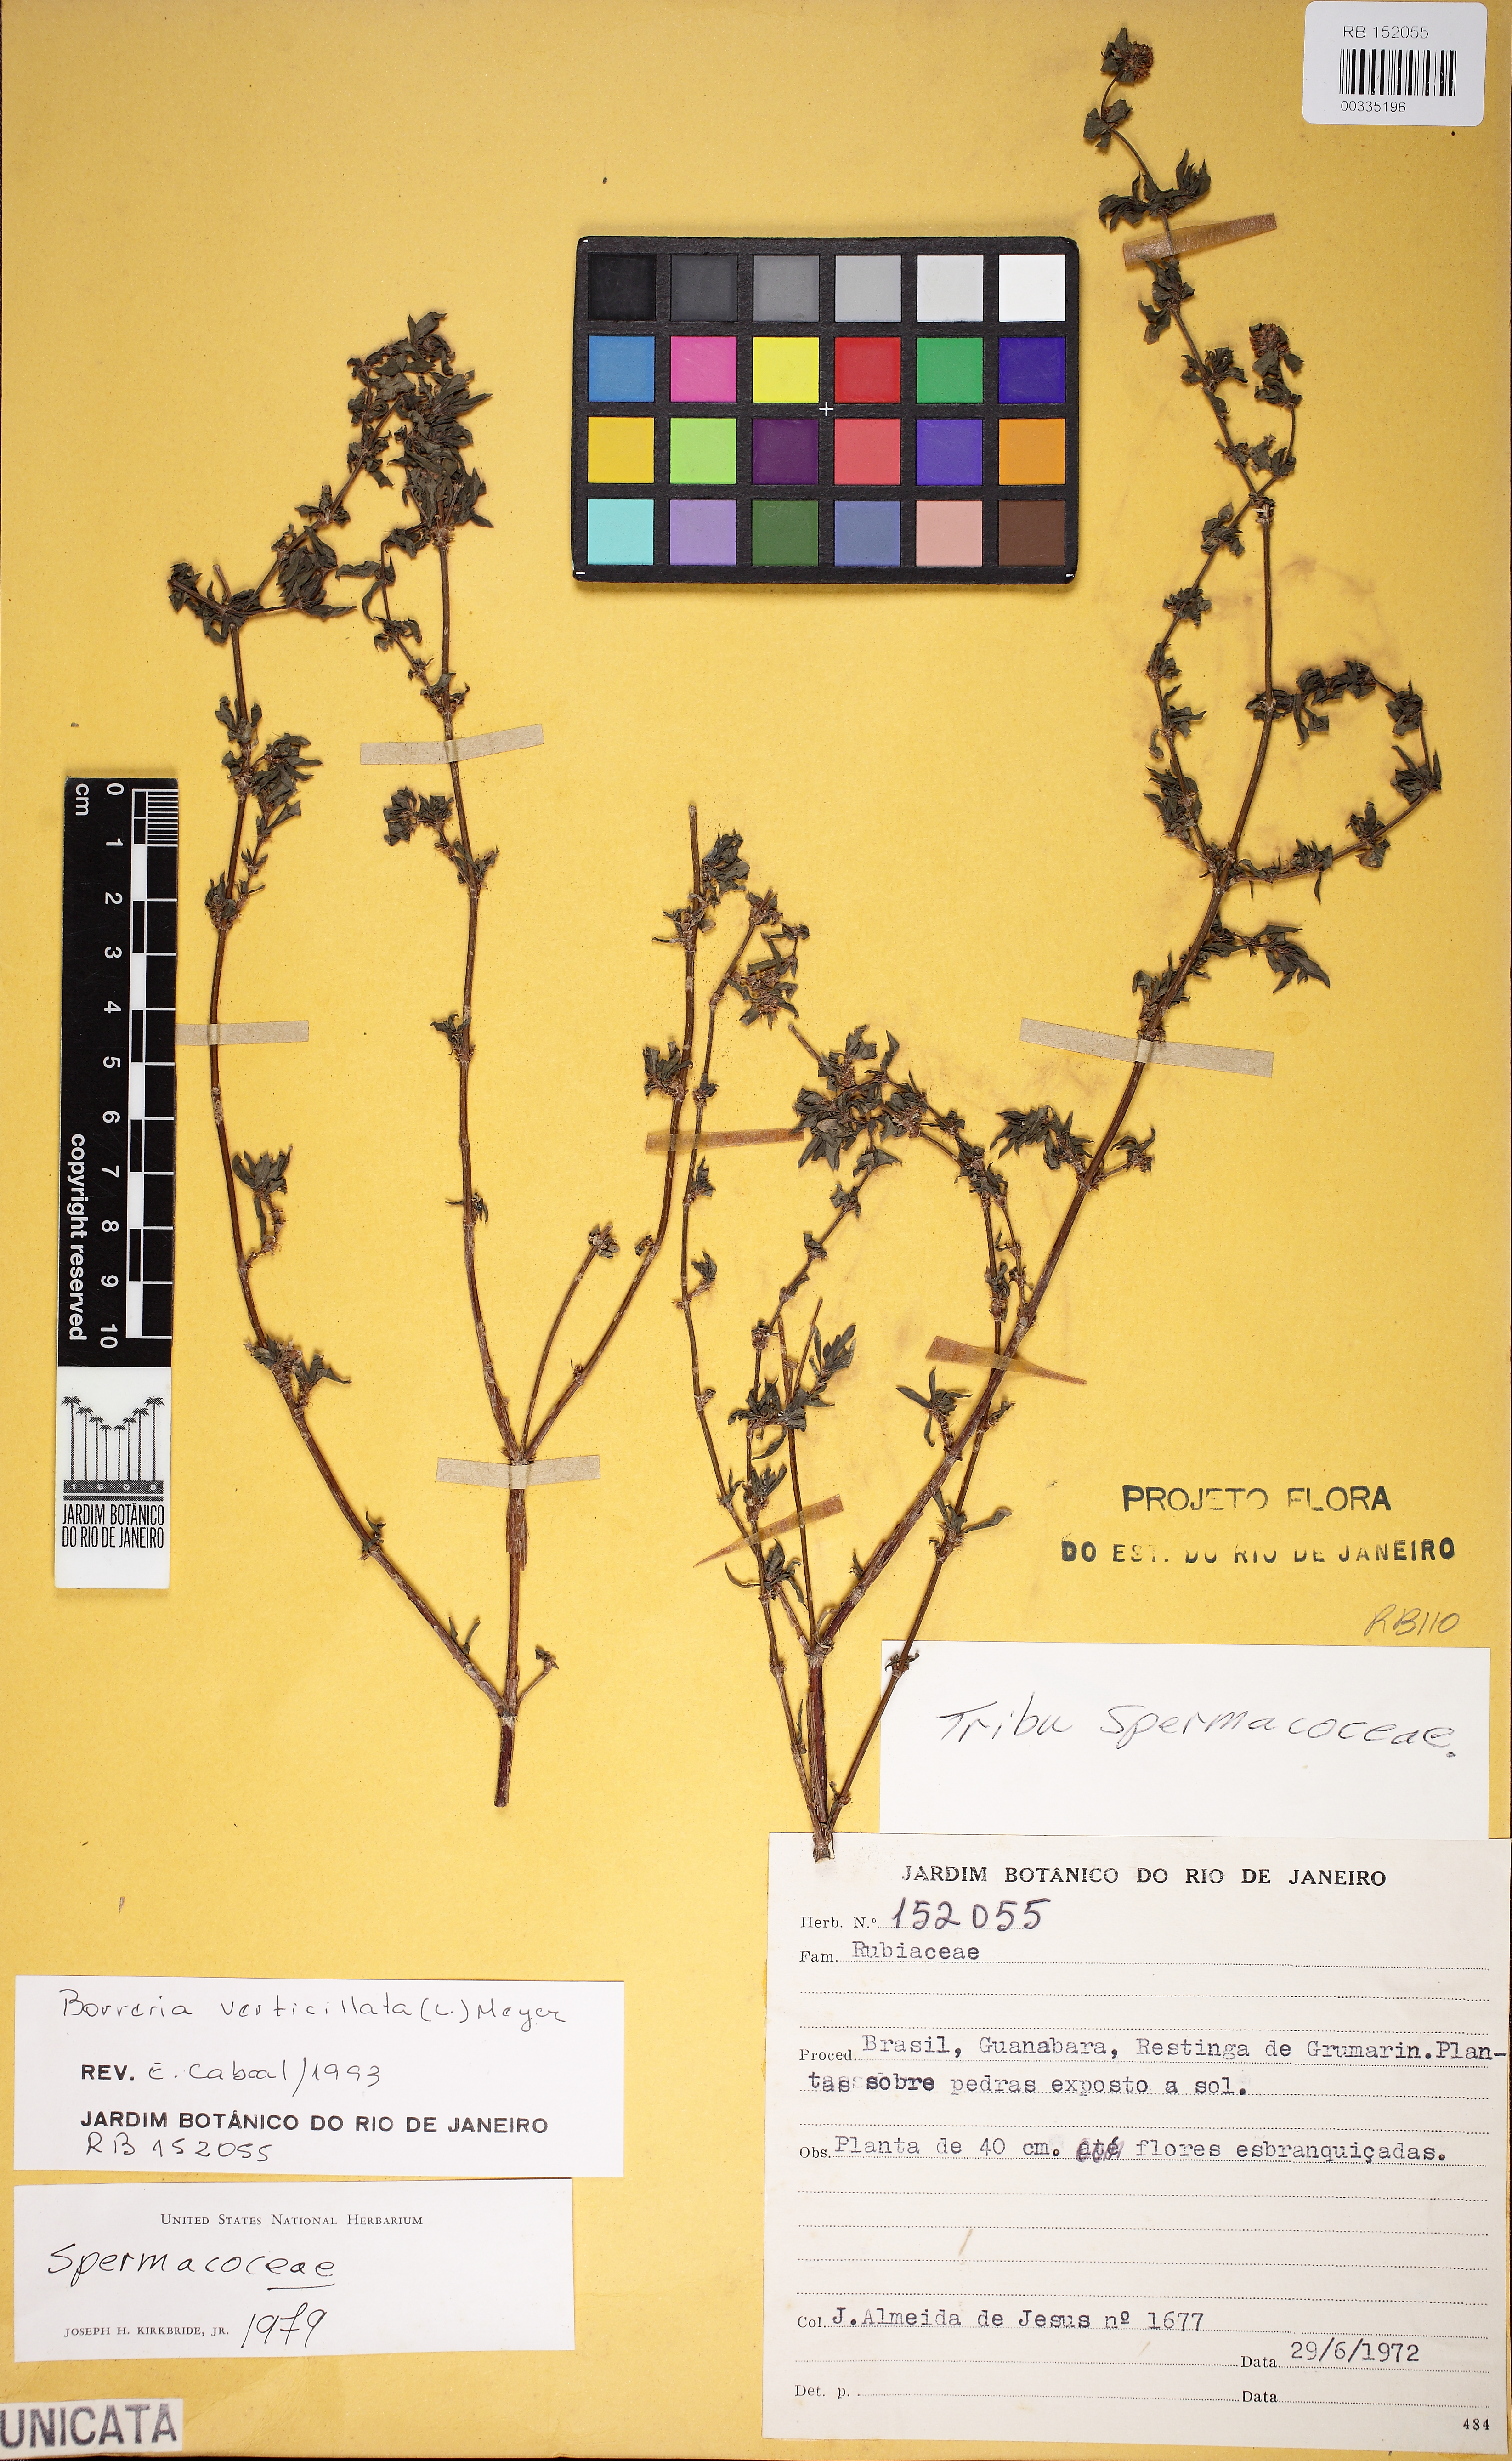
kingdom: Plantae
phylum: Tracheophyta
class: Magnoliopsida
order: Gentianales
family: Rubiaceae
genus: Spermacoce
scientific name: Spermacoce verticillata
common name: Shrubby false buttonweed
